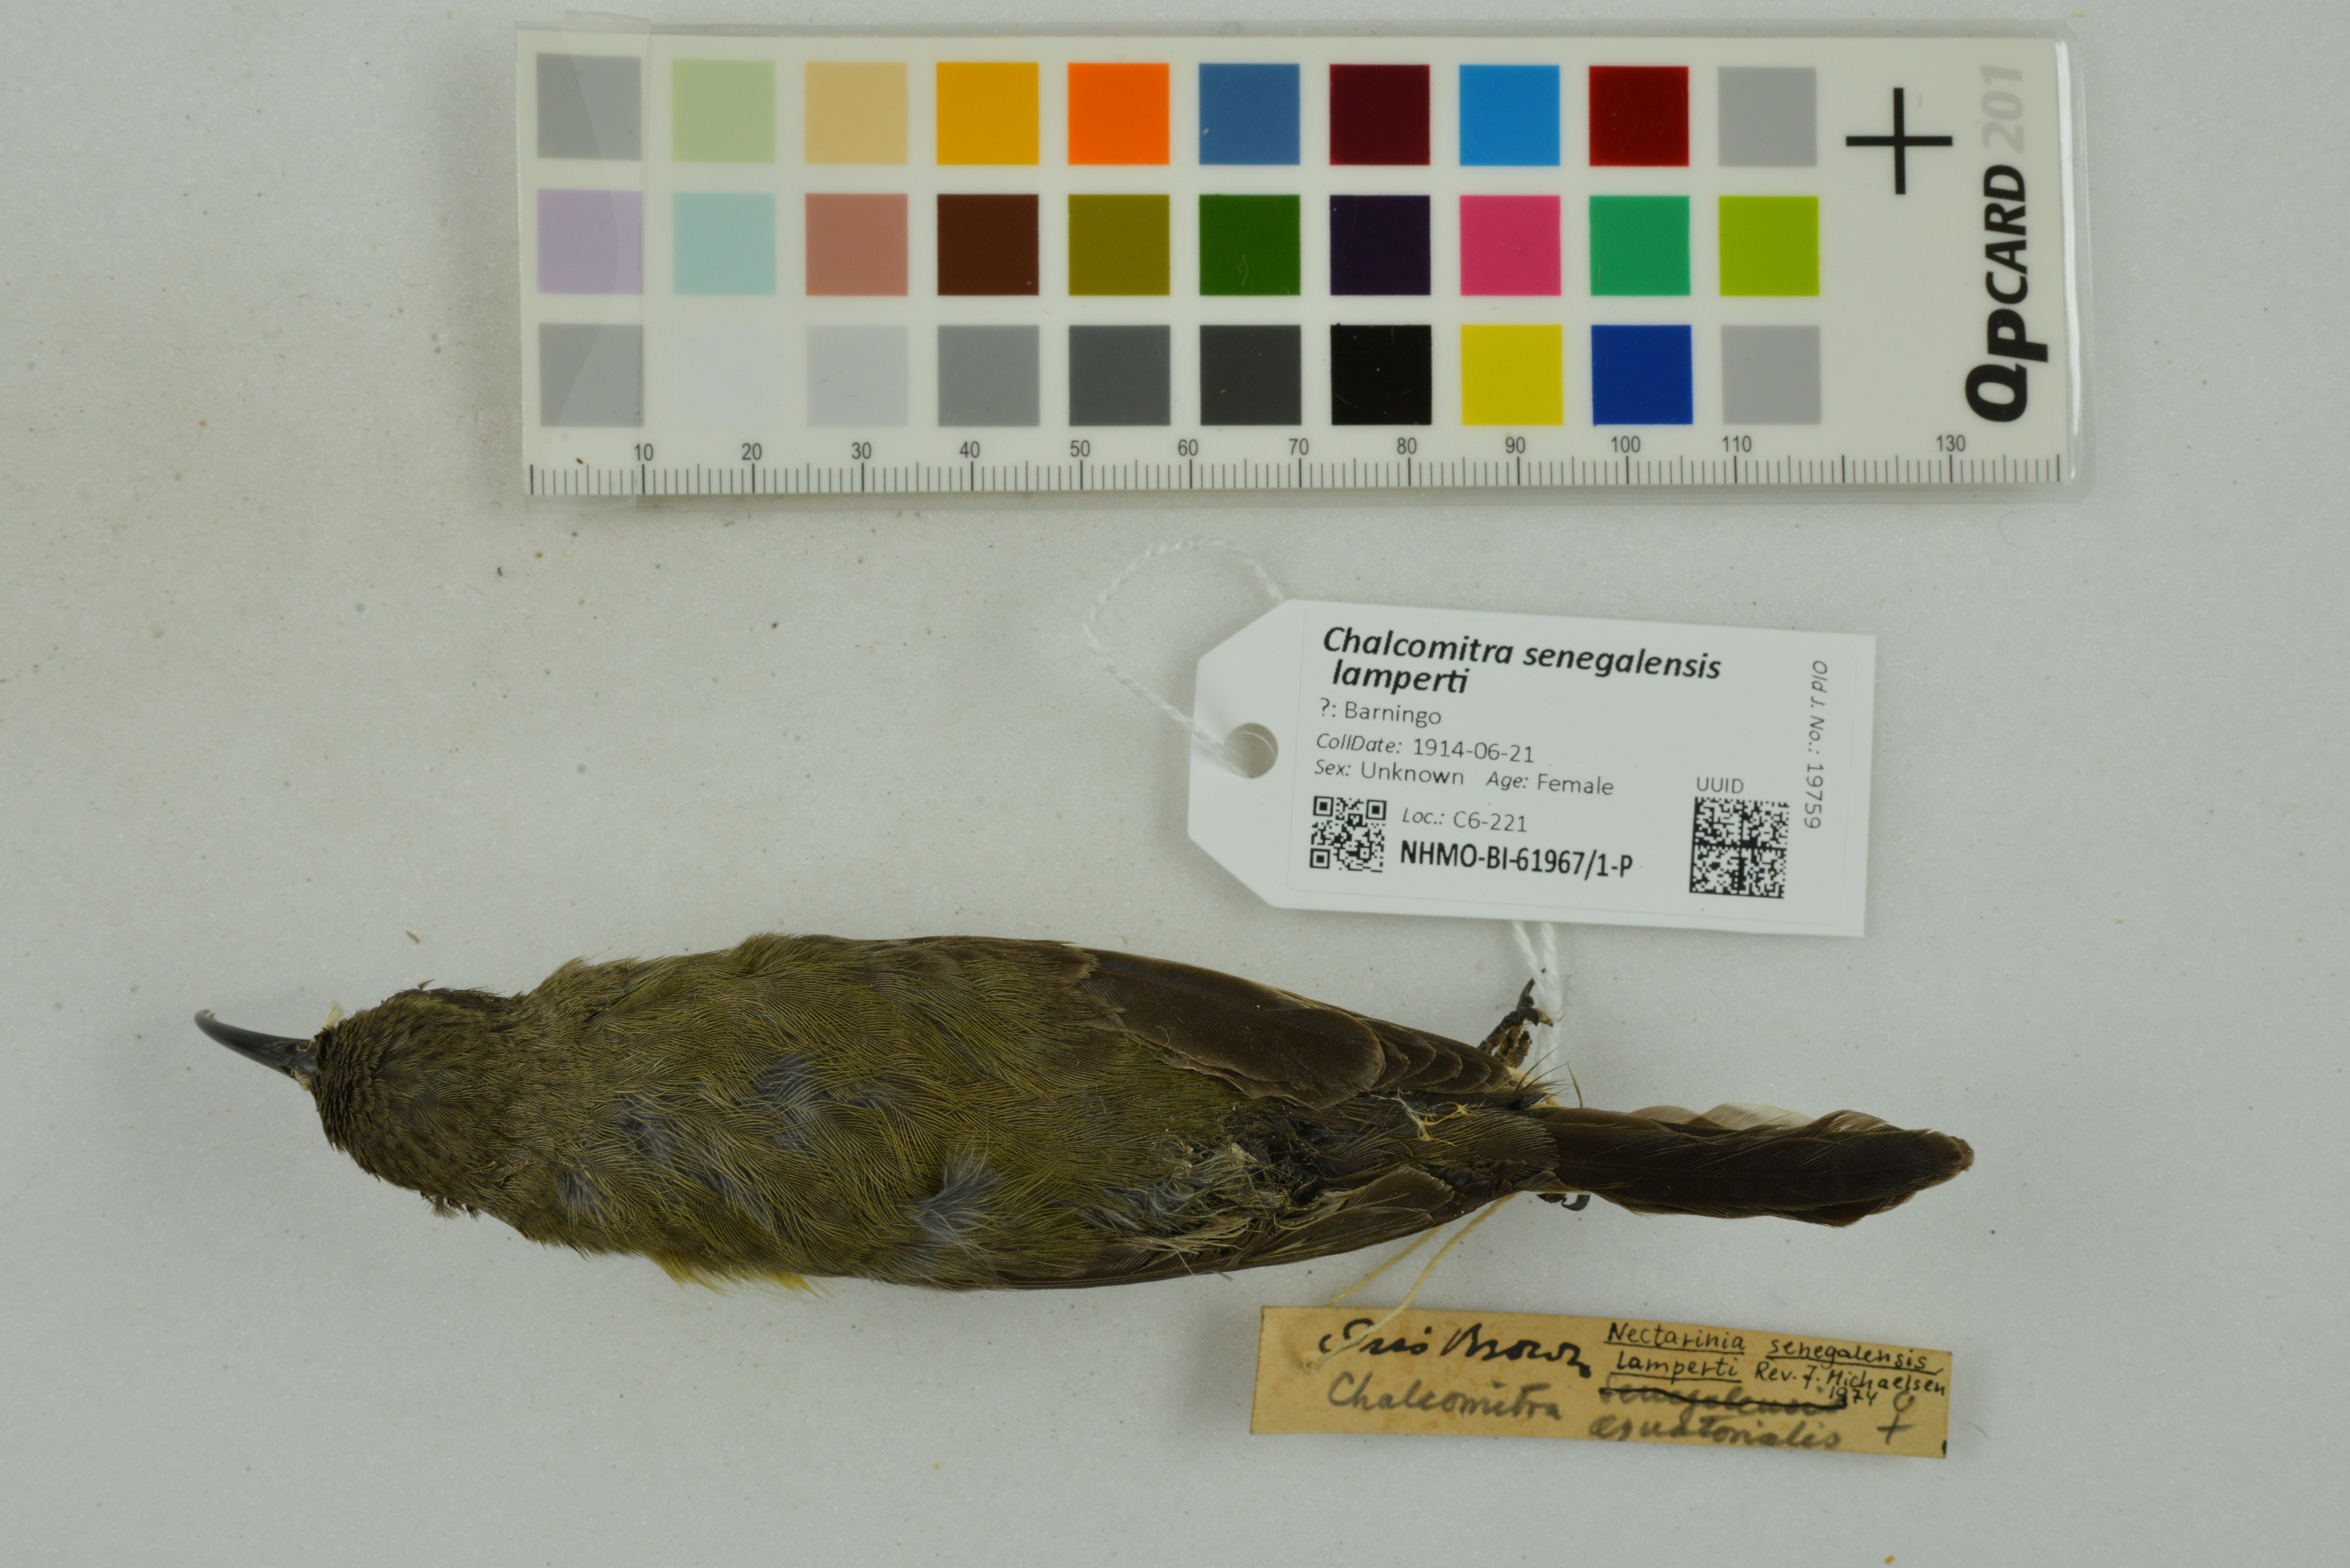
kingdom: Animalia
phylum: Chordata
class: Aves
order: Passeriformes
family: Nectariniidae
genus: Chalcomitra
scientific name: Chalcomitra senegalensis
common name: Scarlet-chested sunbird
